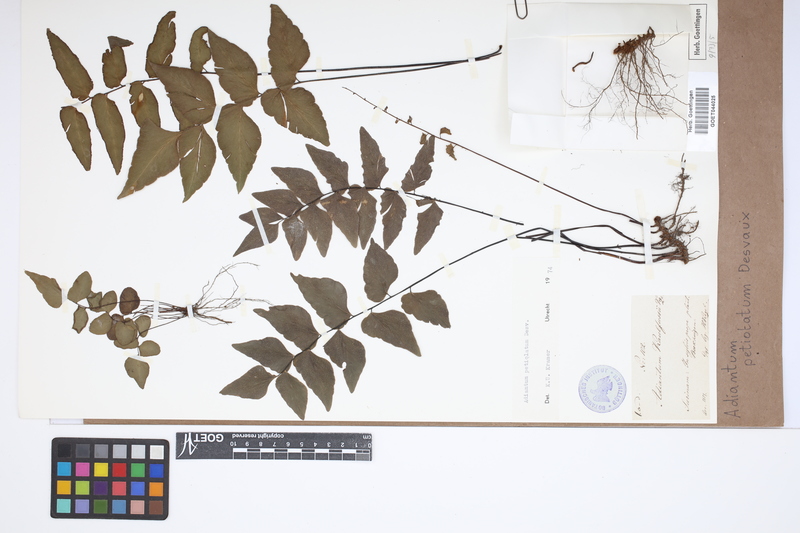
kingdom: Plantae
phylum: Tracheophyta
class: Polypodiopsida
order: Polypodiales
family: Pteridaceae
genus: Adiantum
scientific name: Adiantum petiolatum
